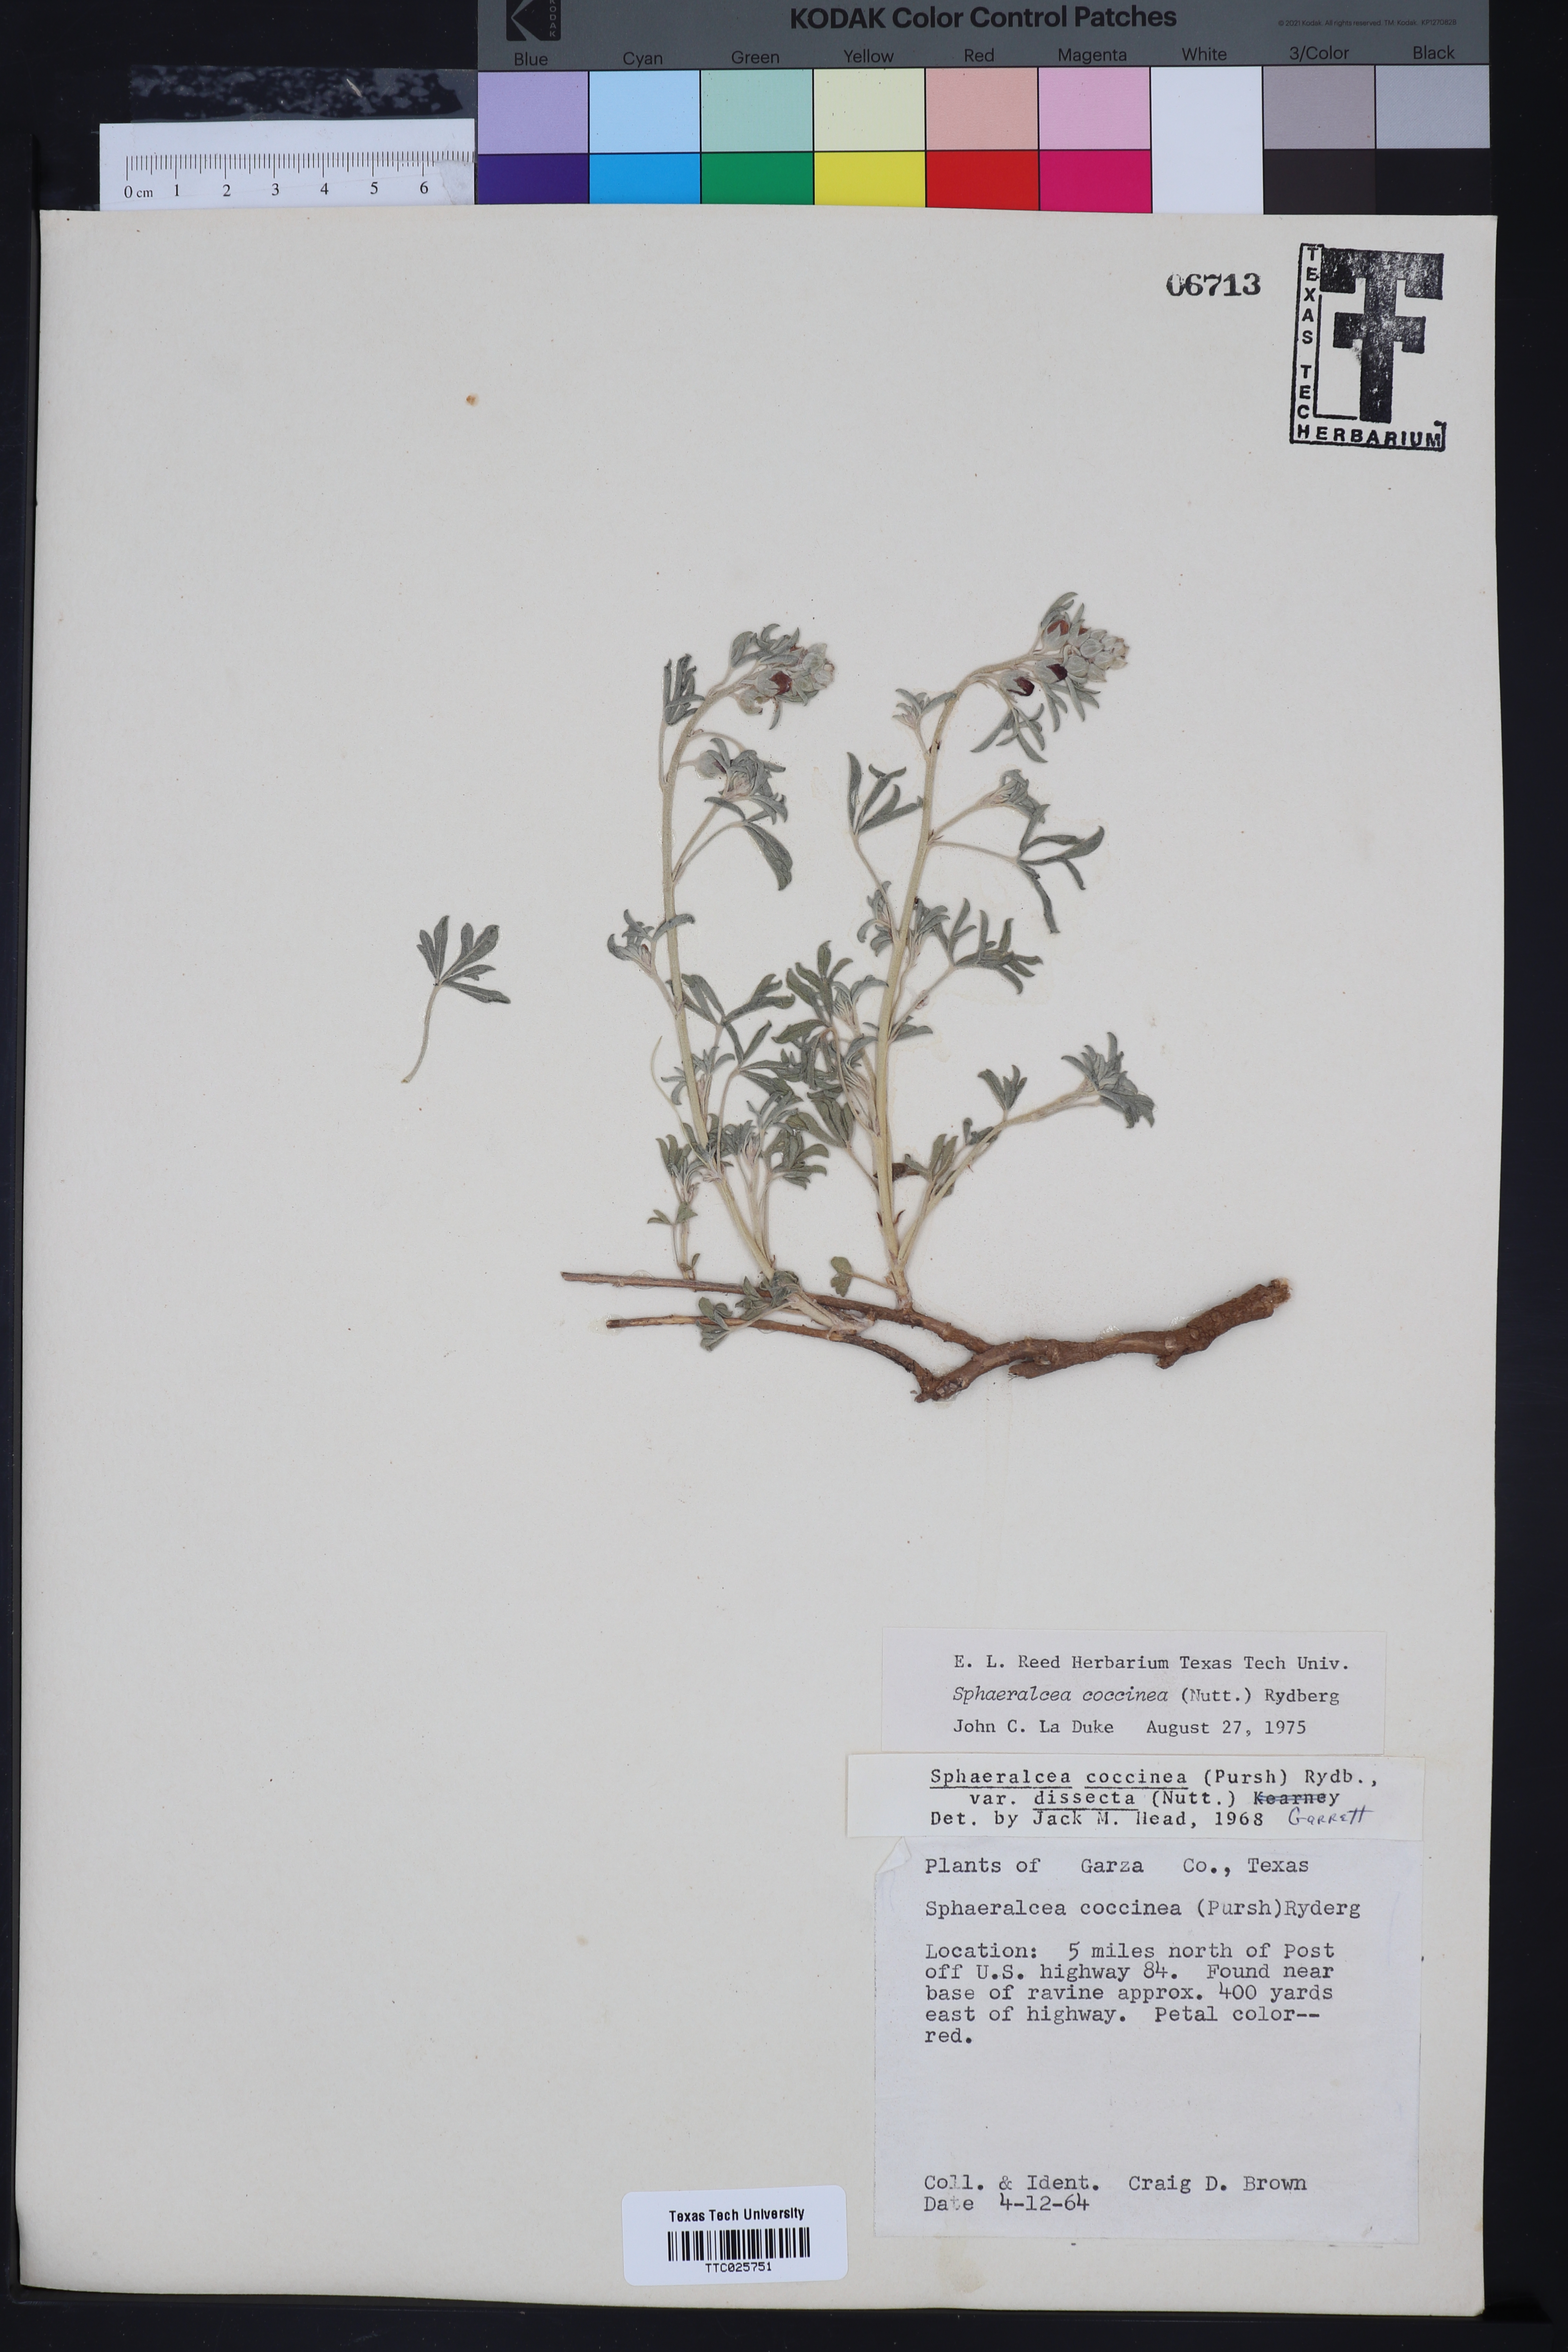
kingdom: Plantae
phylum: Tracheophyta
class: Magnoliopsida
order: Malvales
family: Malvaceae
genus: Sphaeralcea
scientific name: Sphaeralcea coccinea
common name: Moss-rose
